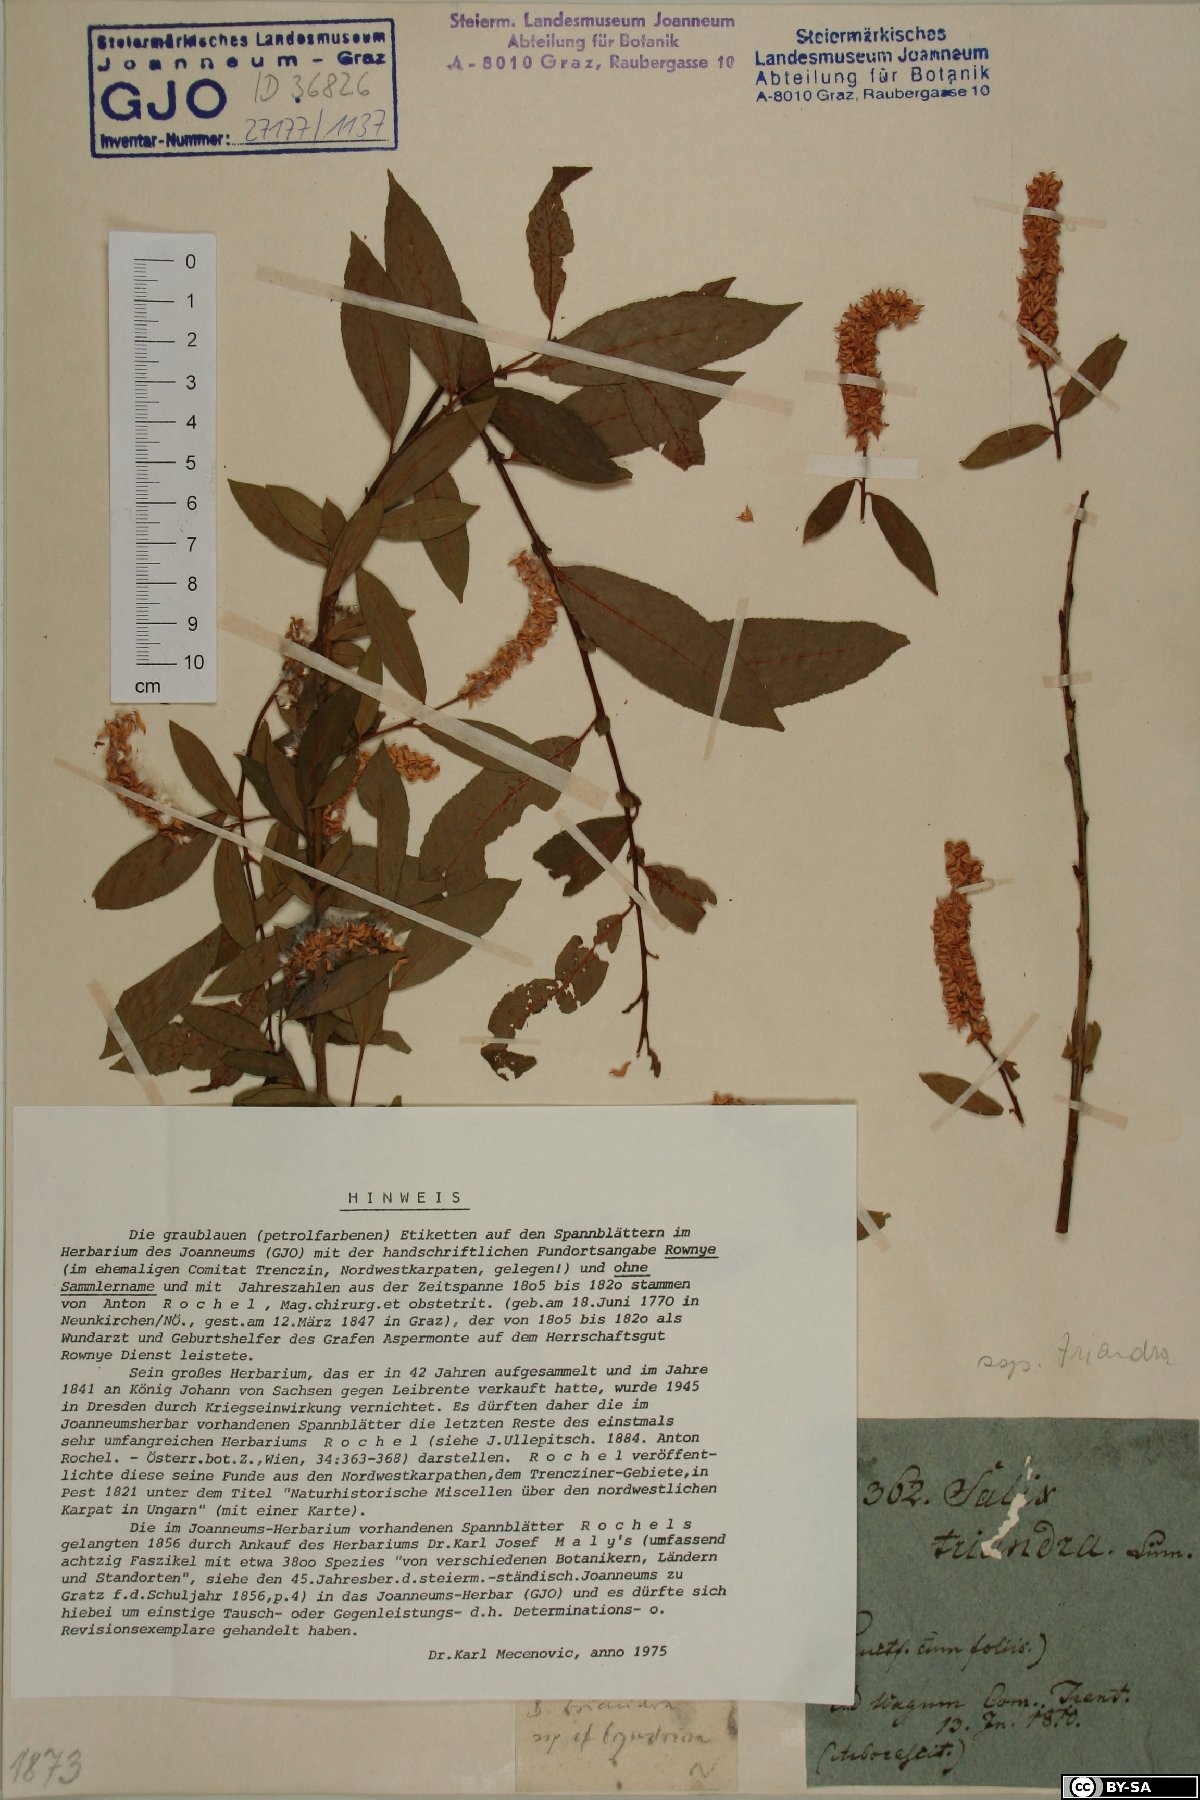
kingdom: Plantae
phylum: Tracheophyta
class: Magnoliopsida
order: Malpighiales
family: Salicaceae
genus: Salix
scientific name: Salix triandra
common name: Almond willow
